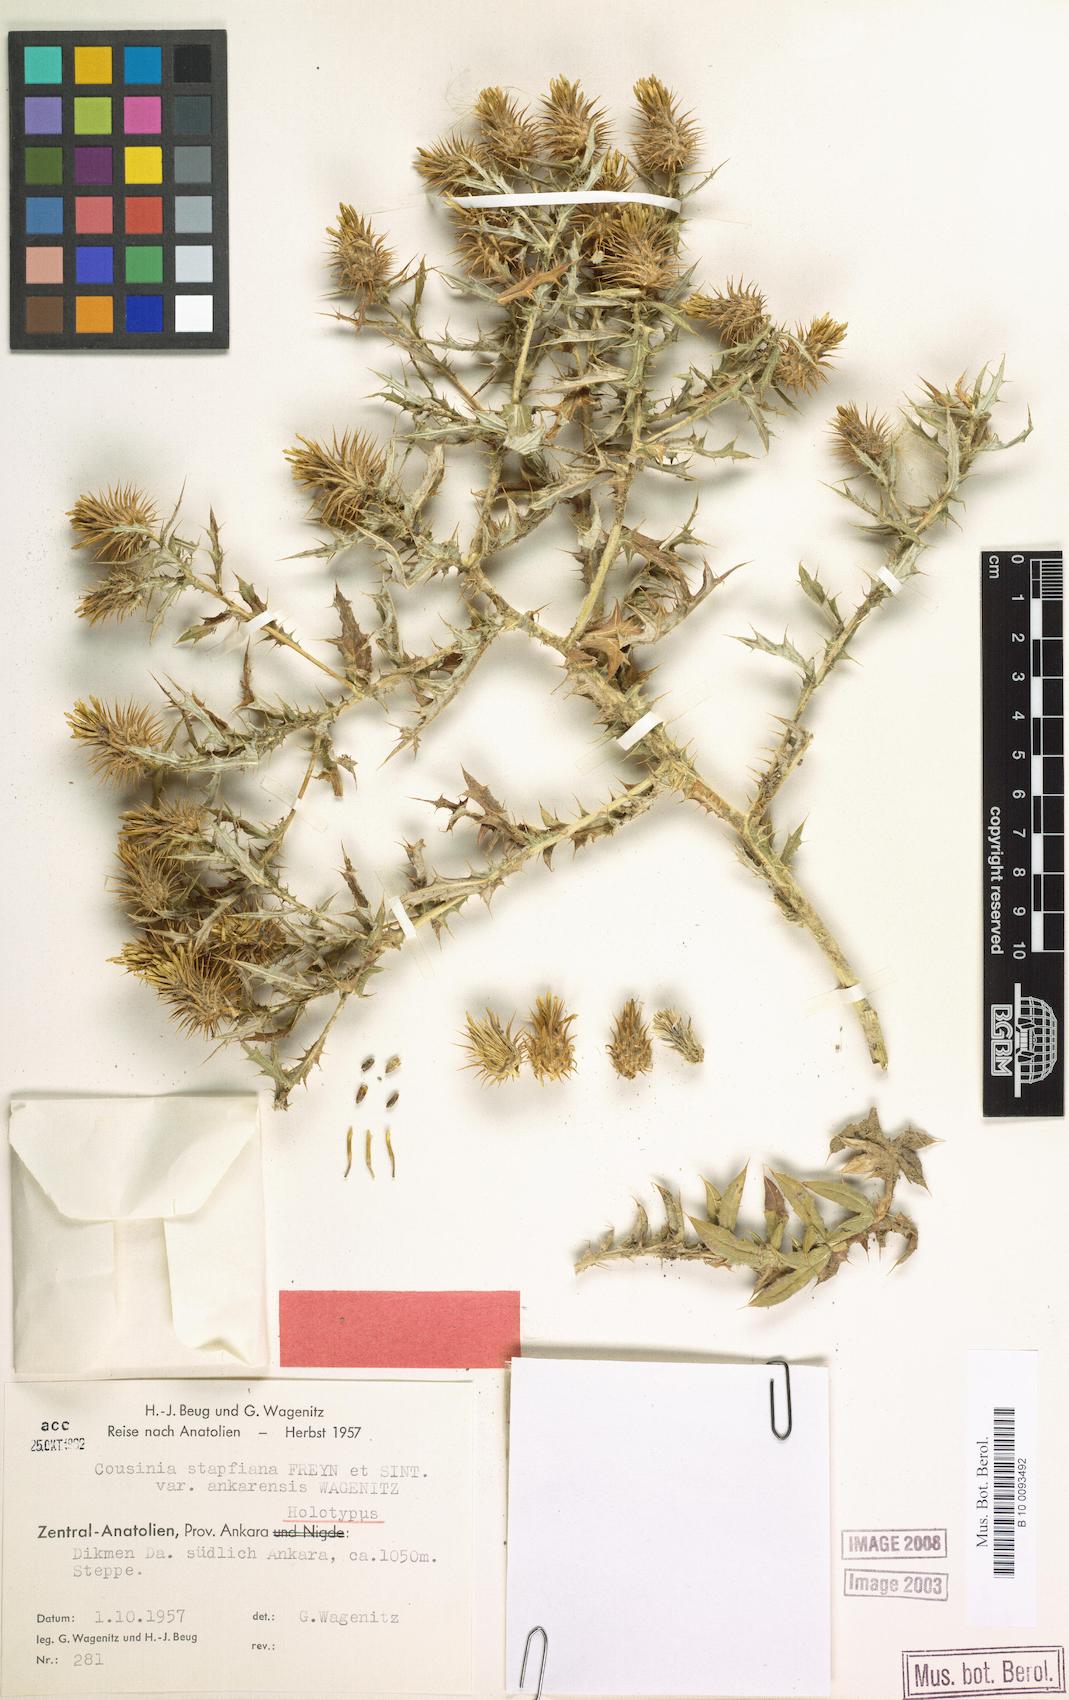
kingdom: Plantae
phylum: Tracheophyta
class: Magnoliopsida
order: Asterales
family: Asteraceae
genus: Cousinia
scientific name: Cousinia stapfiana
